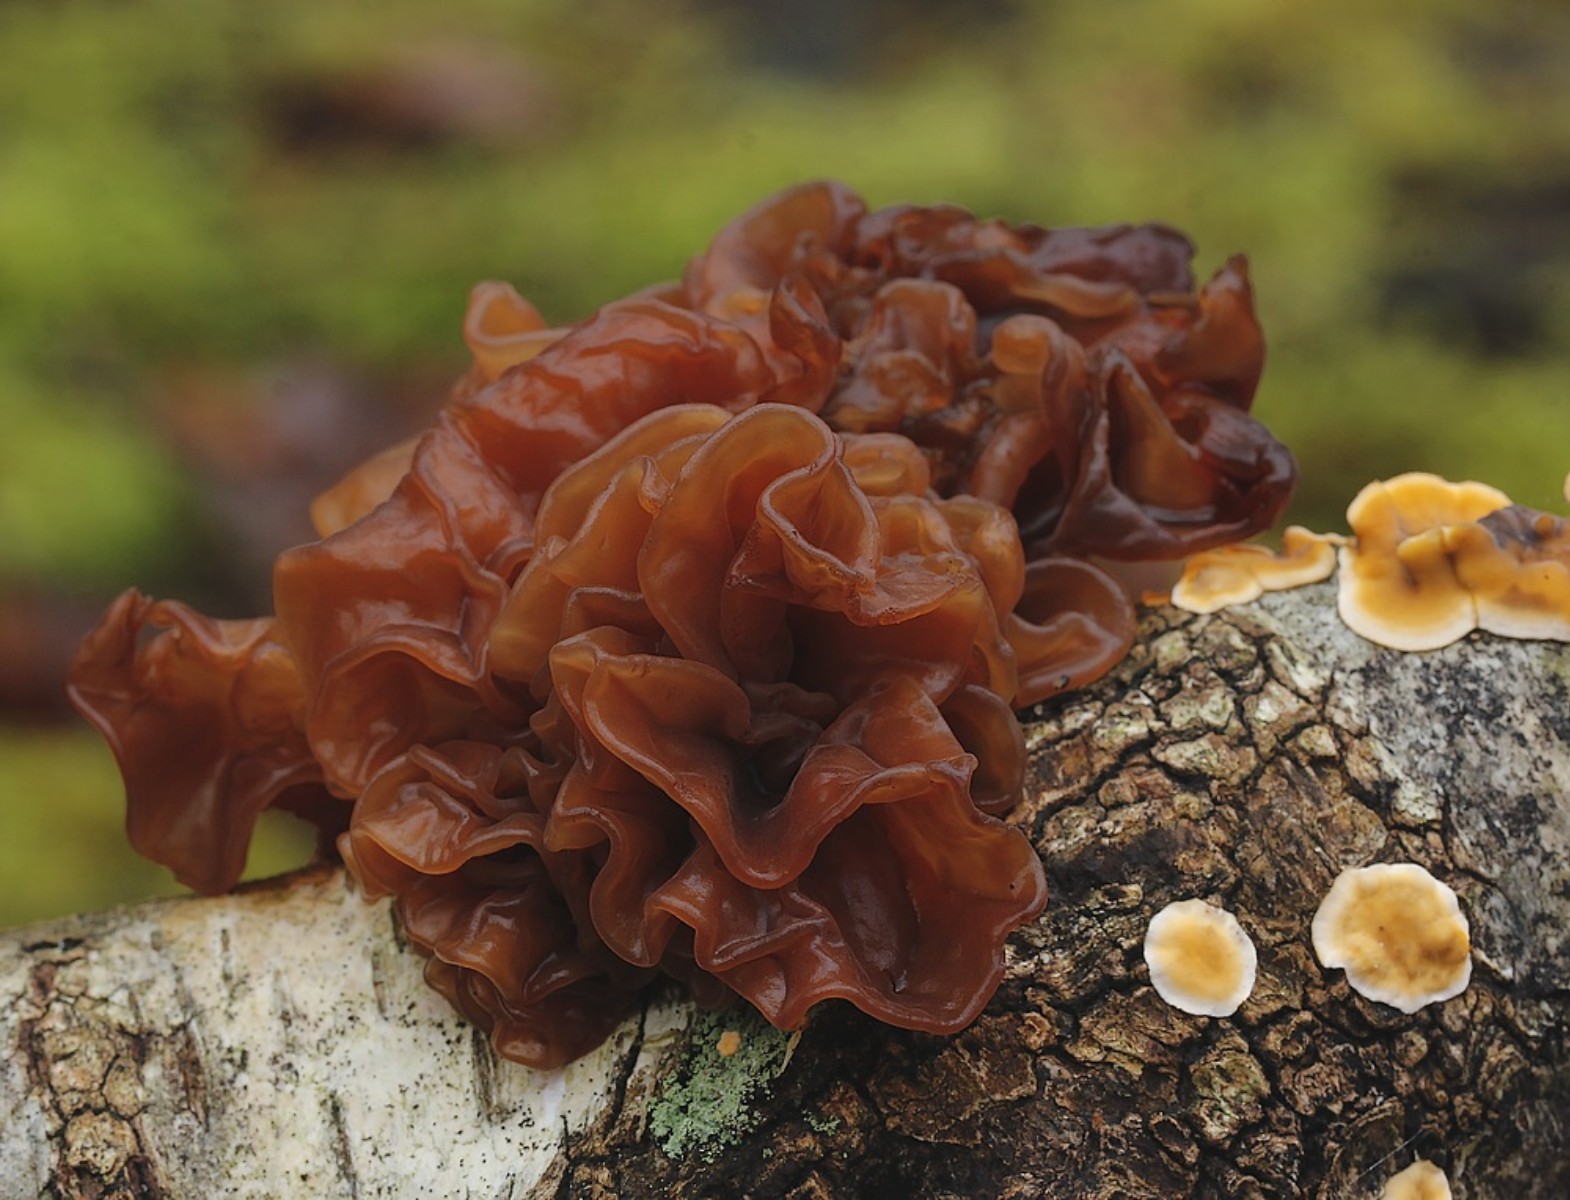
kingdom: Fungi
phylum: Basidiomycota
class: Tremellomycetes
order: Tremellales
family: Tremellaceae
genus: Phaeotremella
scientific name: Phaeotremella frondosa
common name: kæmpe-bævresvamp
